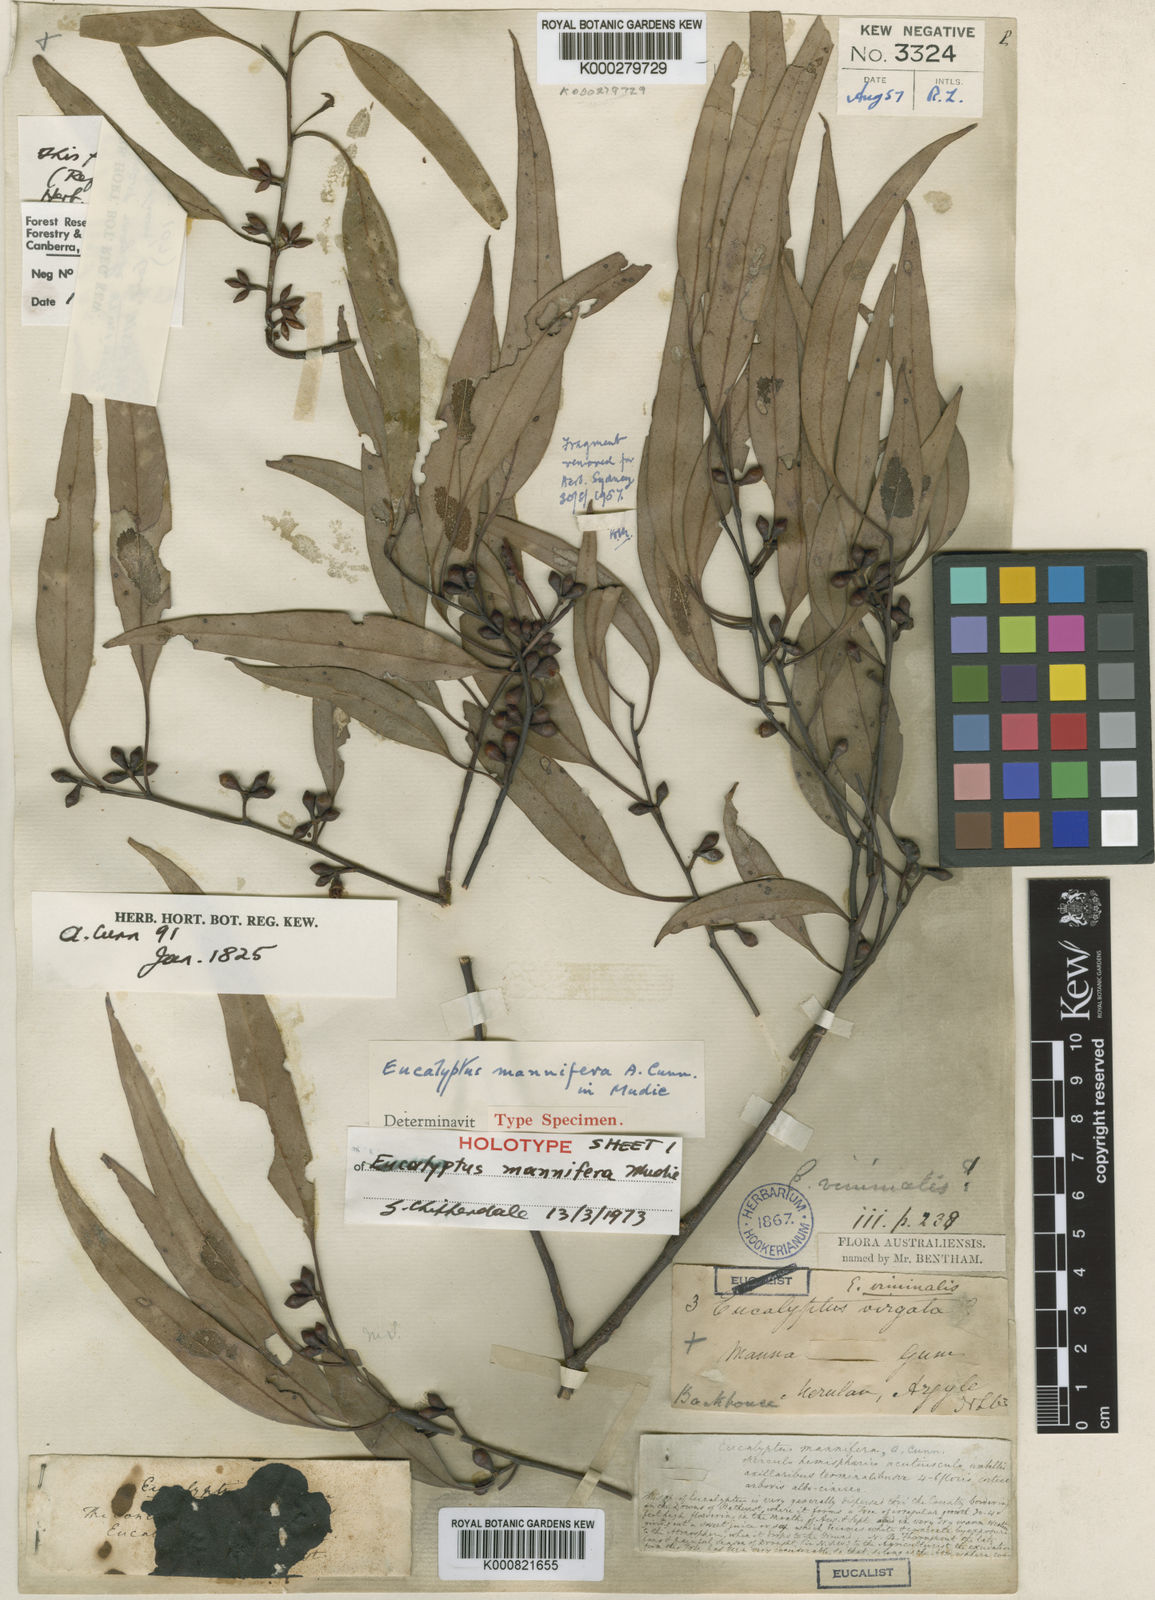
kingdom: Plantae
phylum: Tracheophyta
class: Magnoliopsida
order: Myrtales
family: Myrtaceae
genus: Eucalyptus
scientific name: Eucalyptus mannifera
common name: Manna gum
